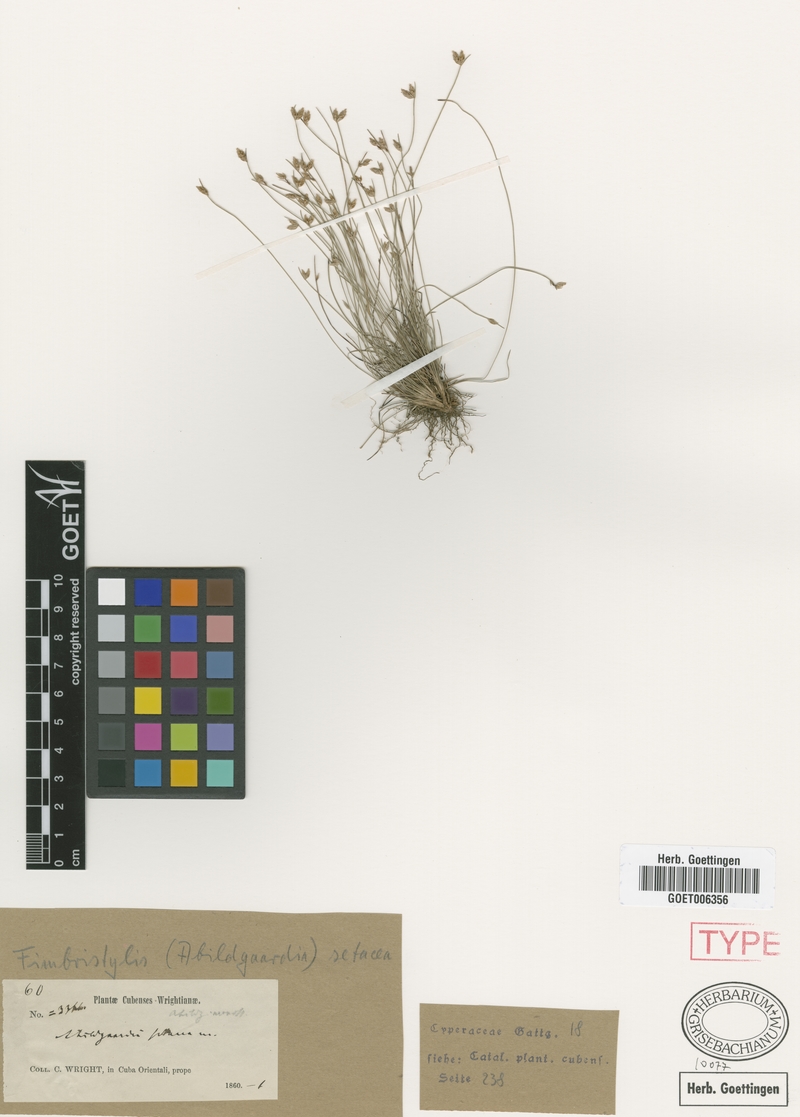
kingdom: Plantae
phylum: Tracheophyta
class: Liliopsida
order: Poales
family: Cyperaceae
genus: Bulbostylis
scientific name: Bulbostylis setacea
